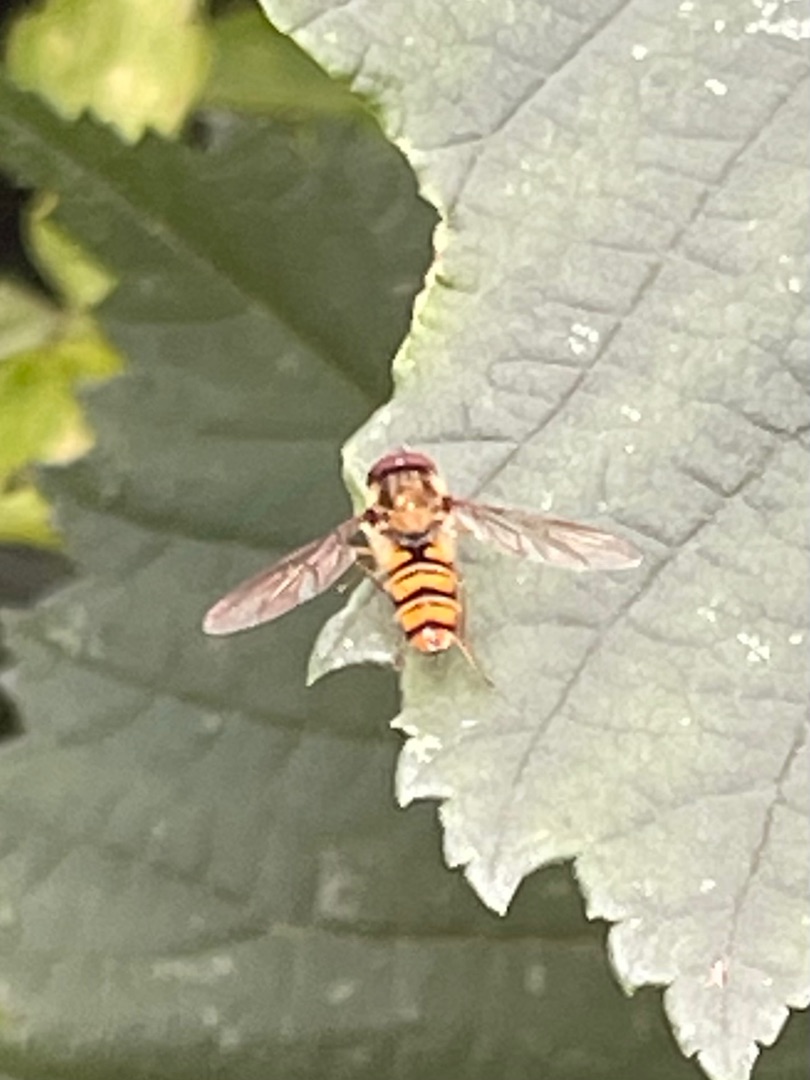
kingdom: Animalia
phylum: Arthropoda
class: Insecta
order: Diptera
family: Syrphidae
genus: Episyrphus
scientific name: Episyrphus balteatus
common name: Dobbeltbåndet svirreflue
